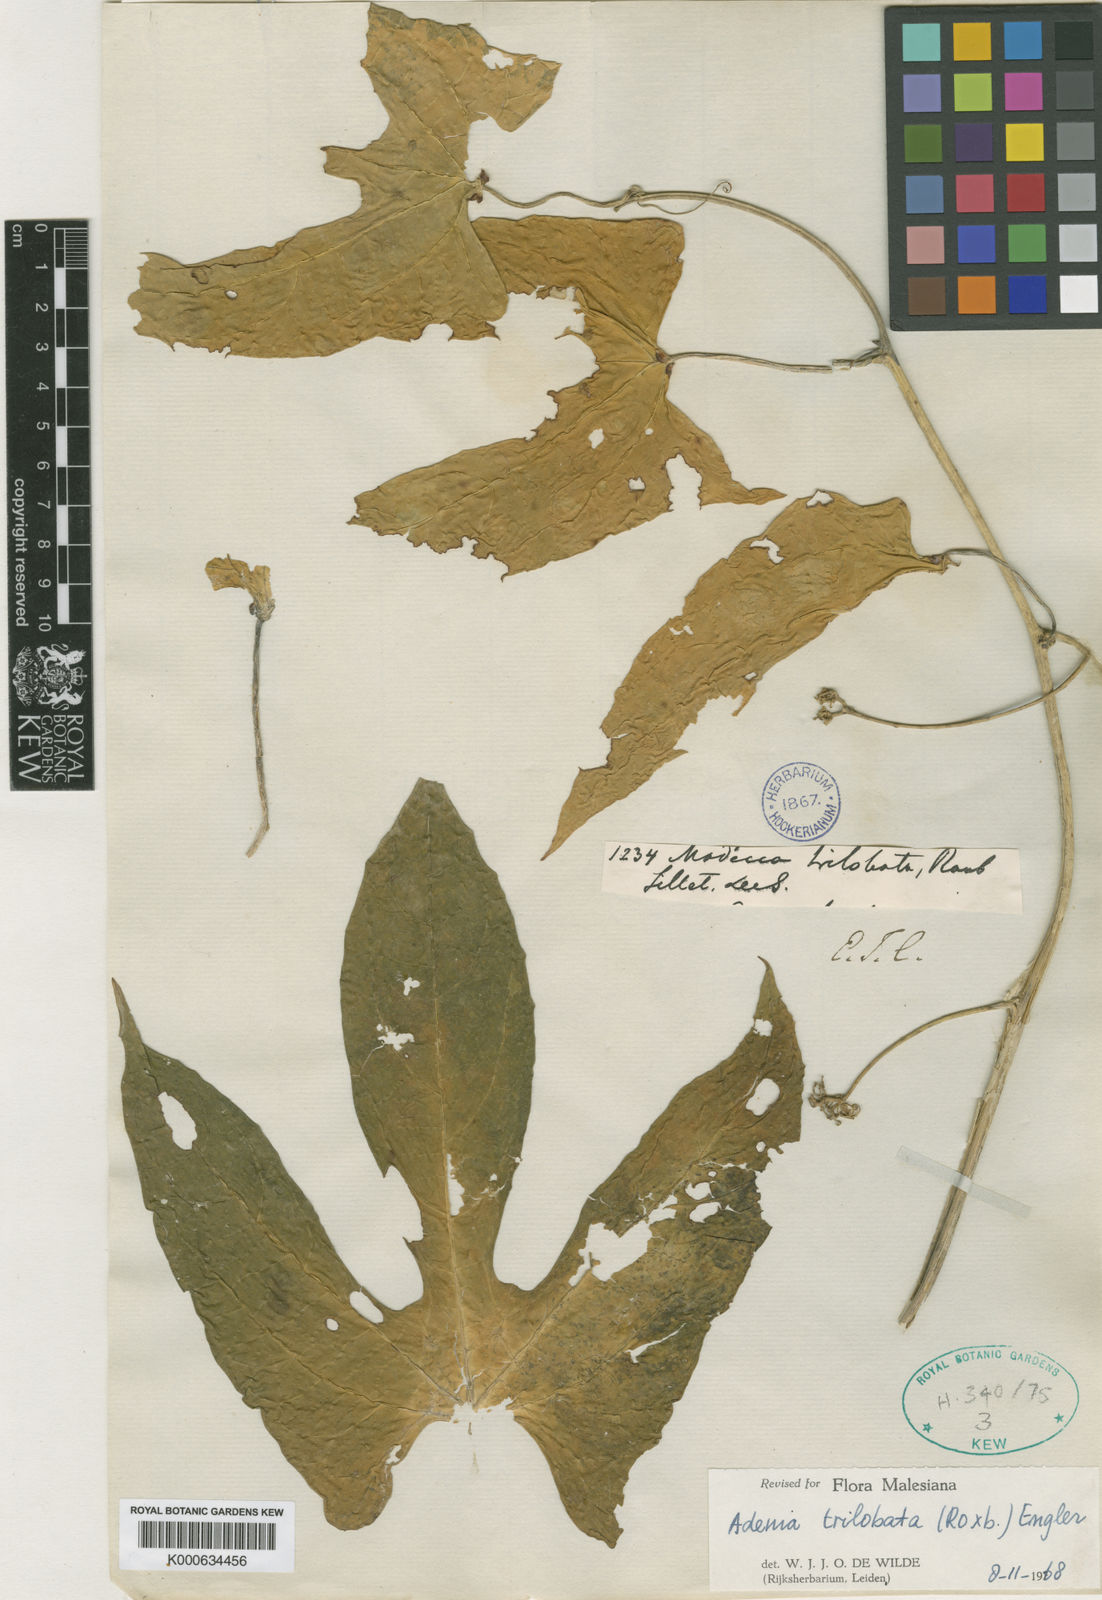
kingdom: Plantae
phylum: Tracheophyta
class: Magnoliopsida
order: Malpighiales
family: Passifloraceae
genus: Adenia
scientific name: Adenia
